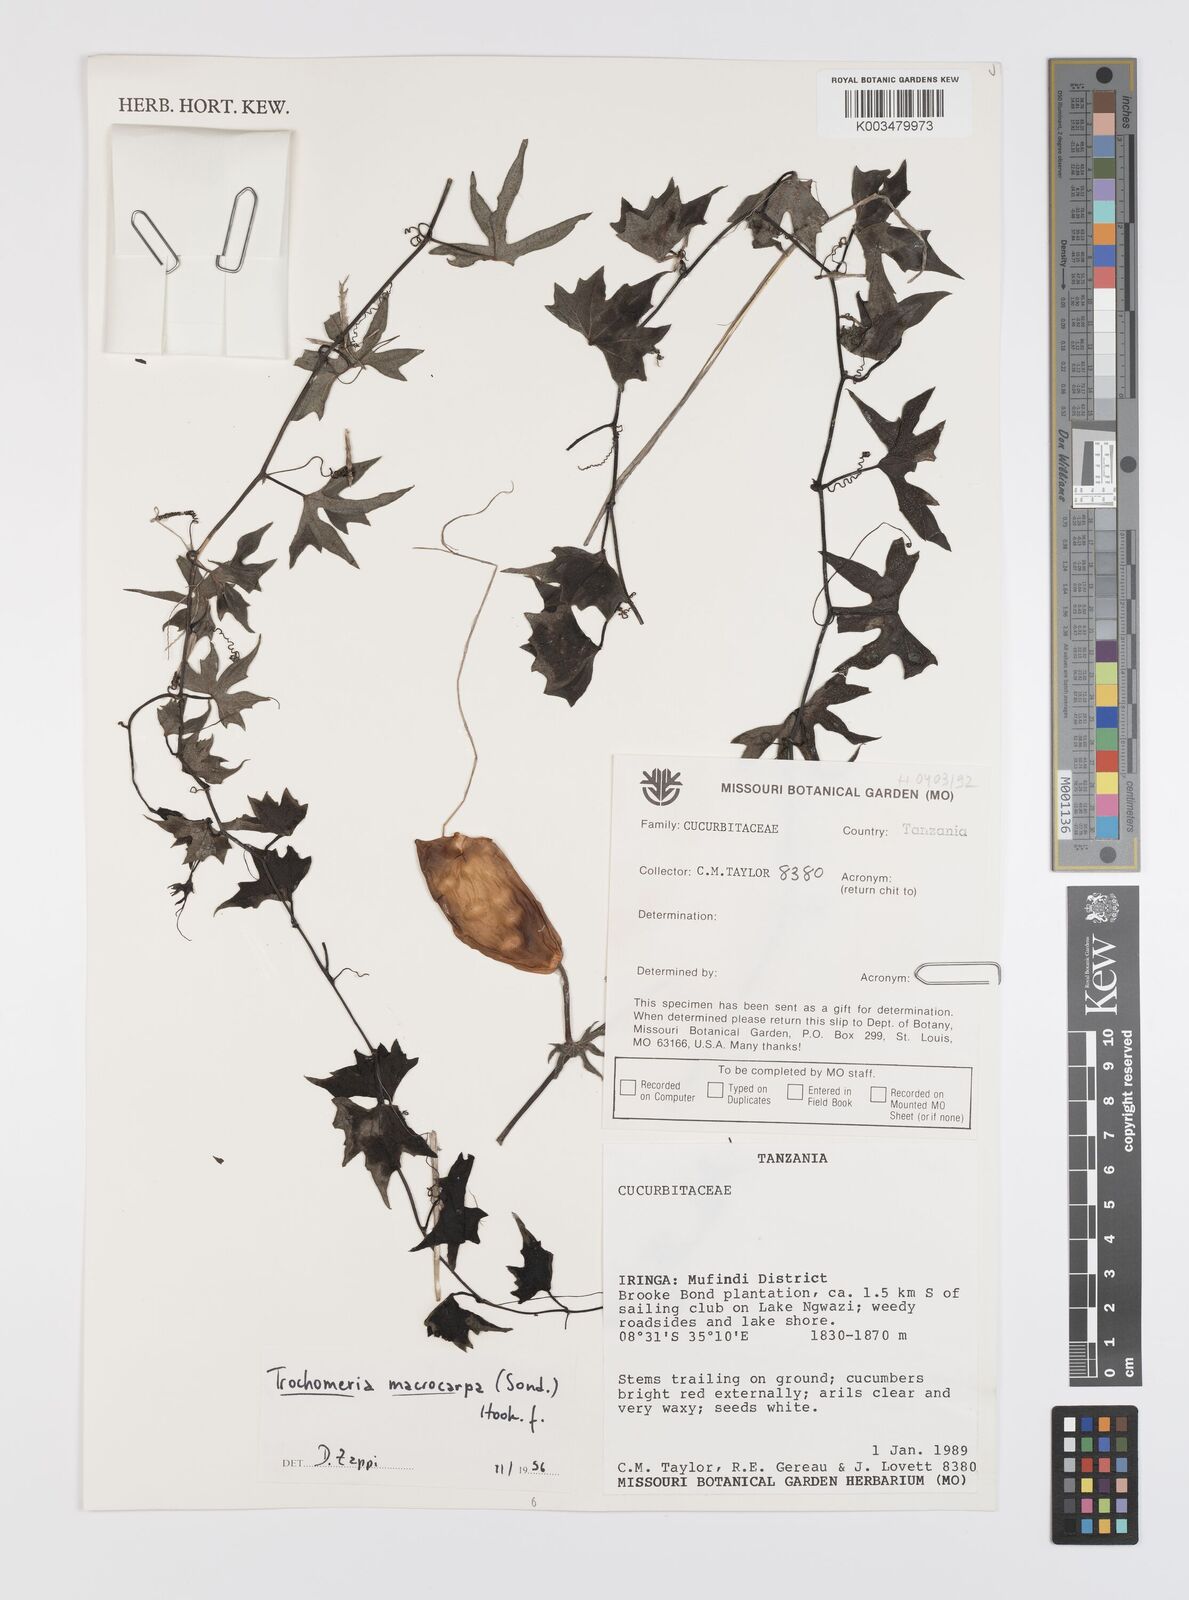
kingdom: Plantae
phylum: Tracheophyta
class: Magnoliopsida
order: Cucurbitales
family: Cucurbitaceae
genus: Trochomeria
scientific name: Trochomeria macrocarpa
